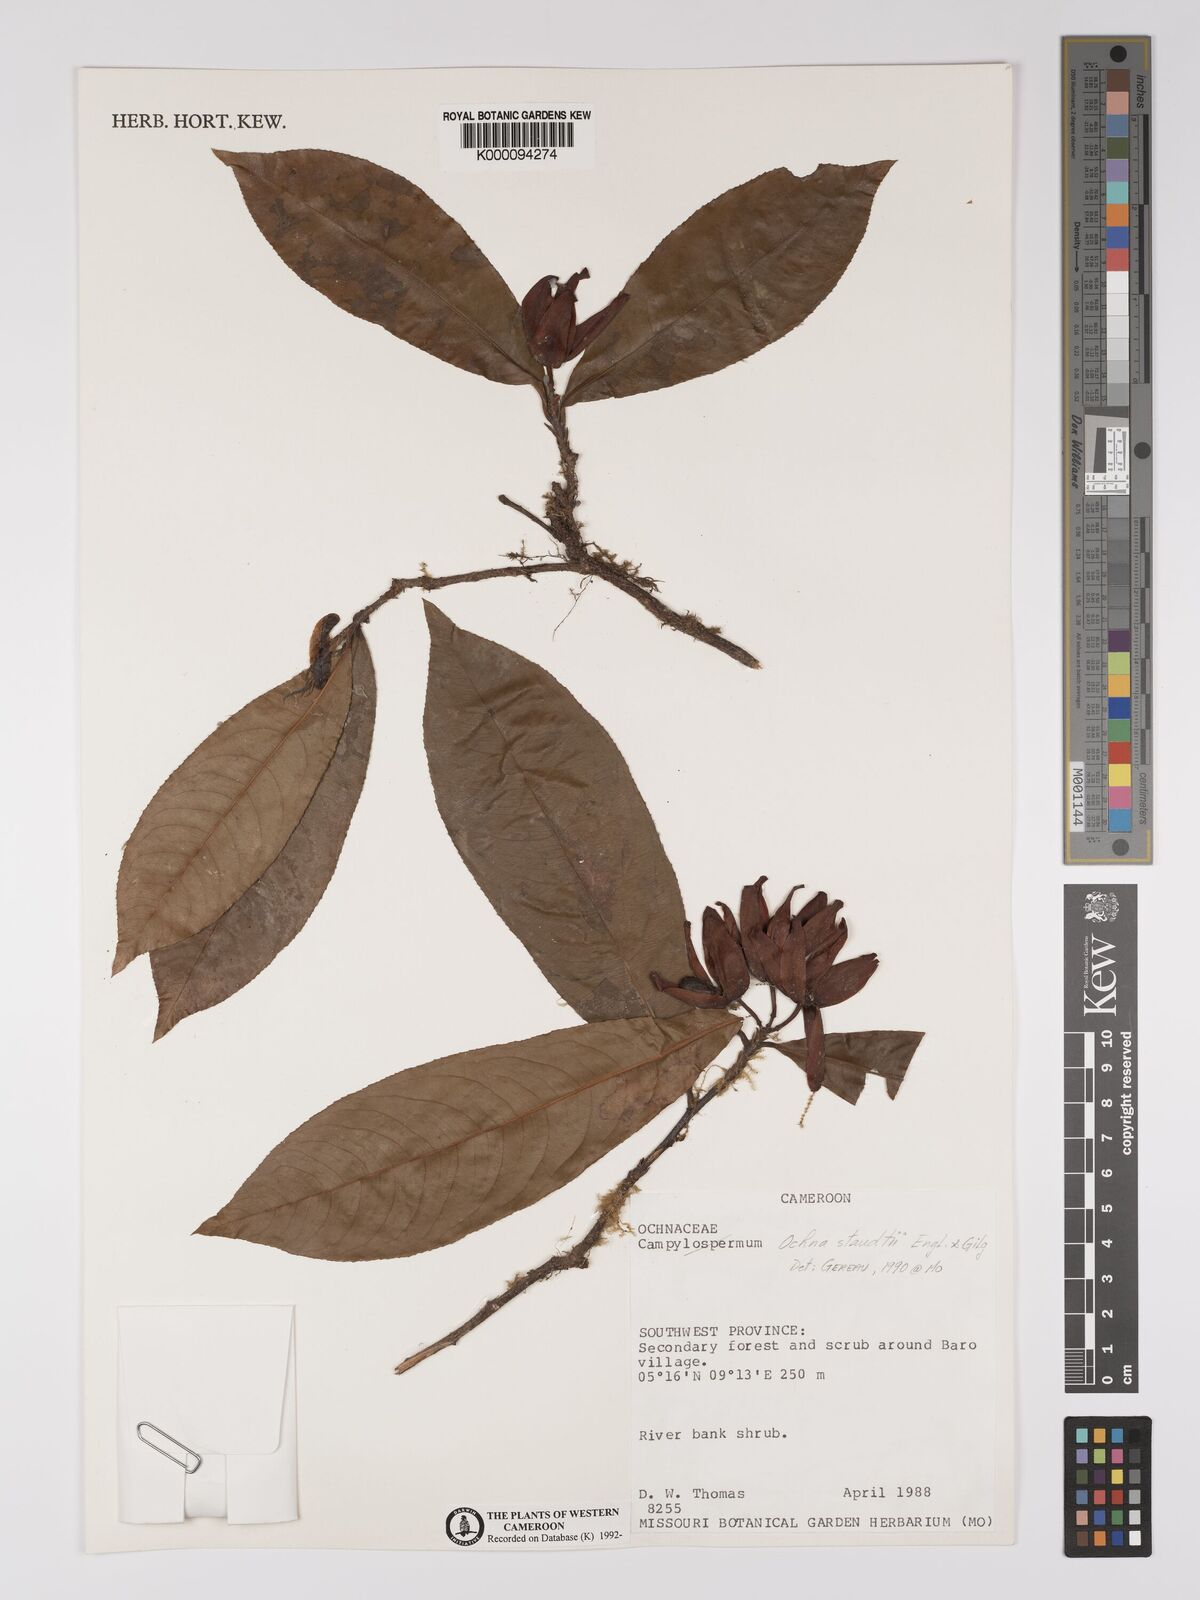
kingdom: Plantae
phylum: Tracheophyta
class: Magnoliopsida
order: Malpighiales
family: Ochnaceae
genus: Ochna
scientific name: Ochna staudtii
